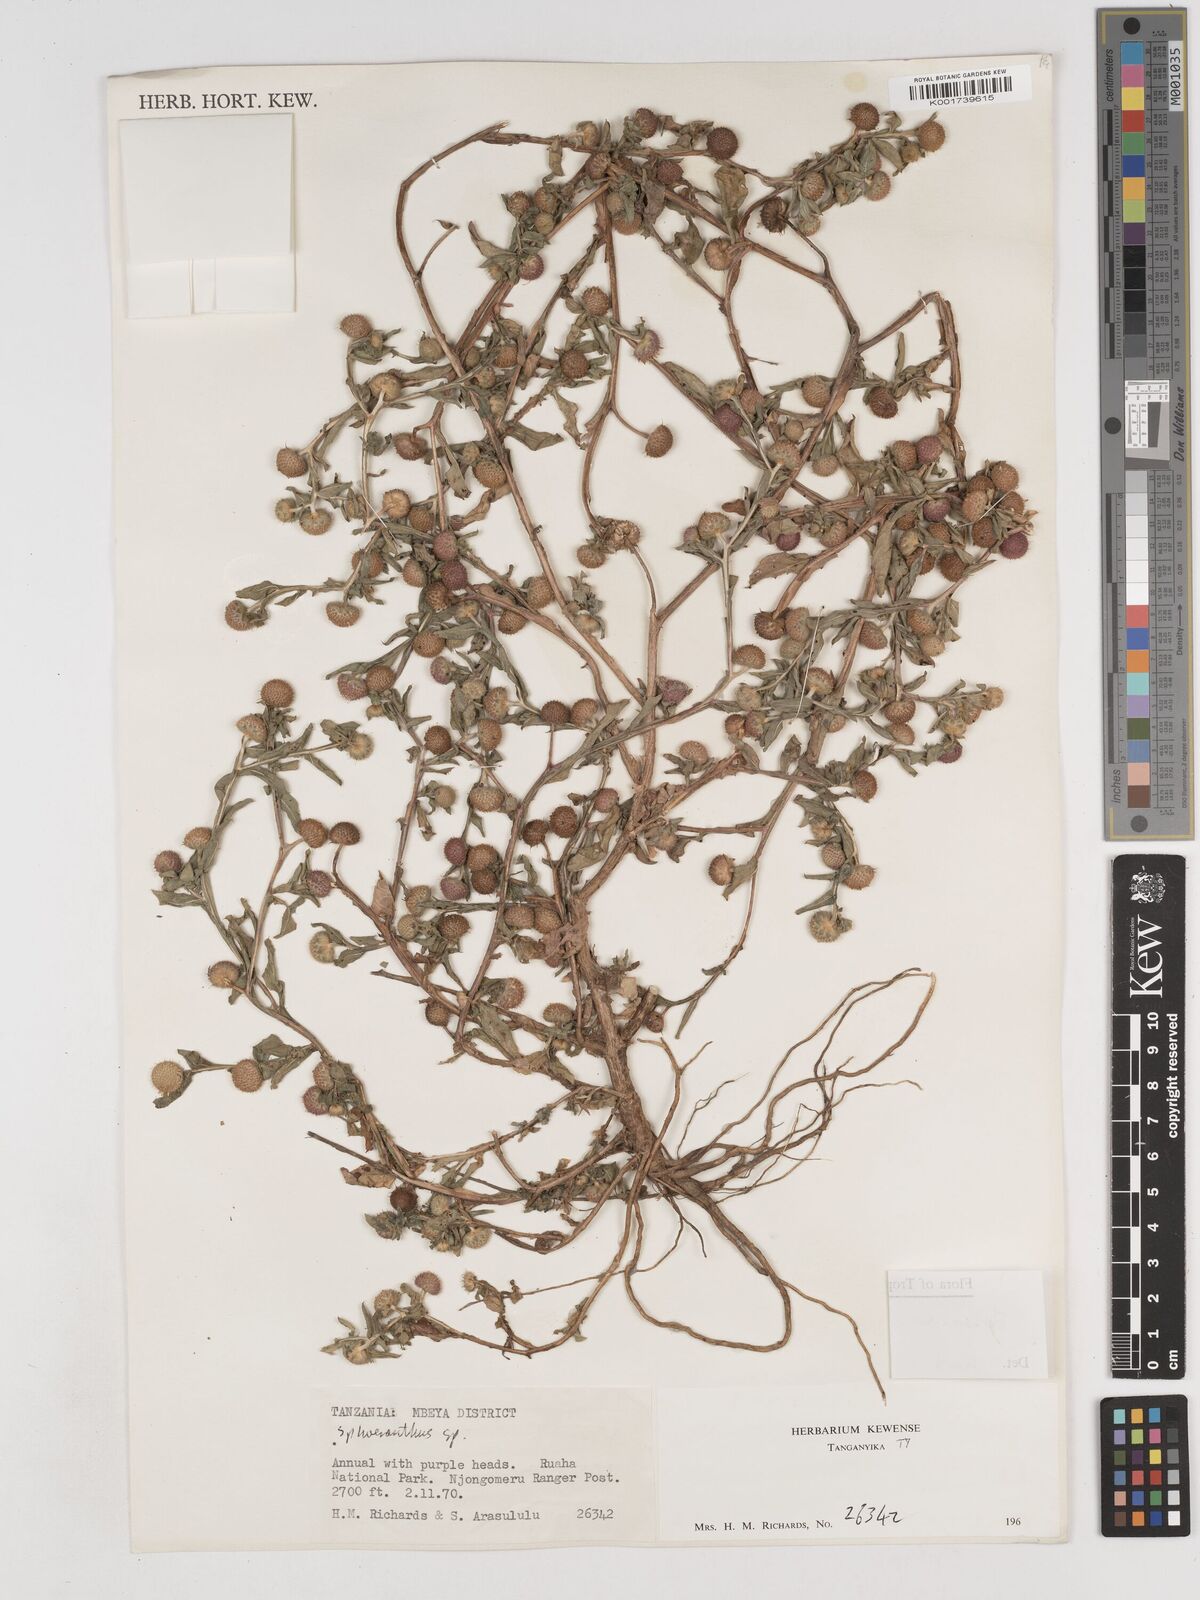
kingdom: Plantae
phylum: Tracheophyta
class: Magnoliopsida
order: Asterales
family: Asteraceae
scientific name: Asteraceae
